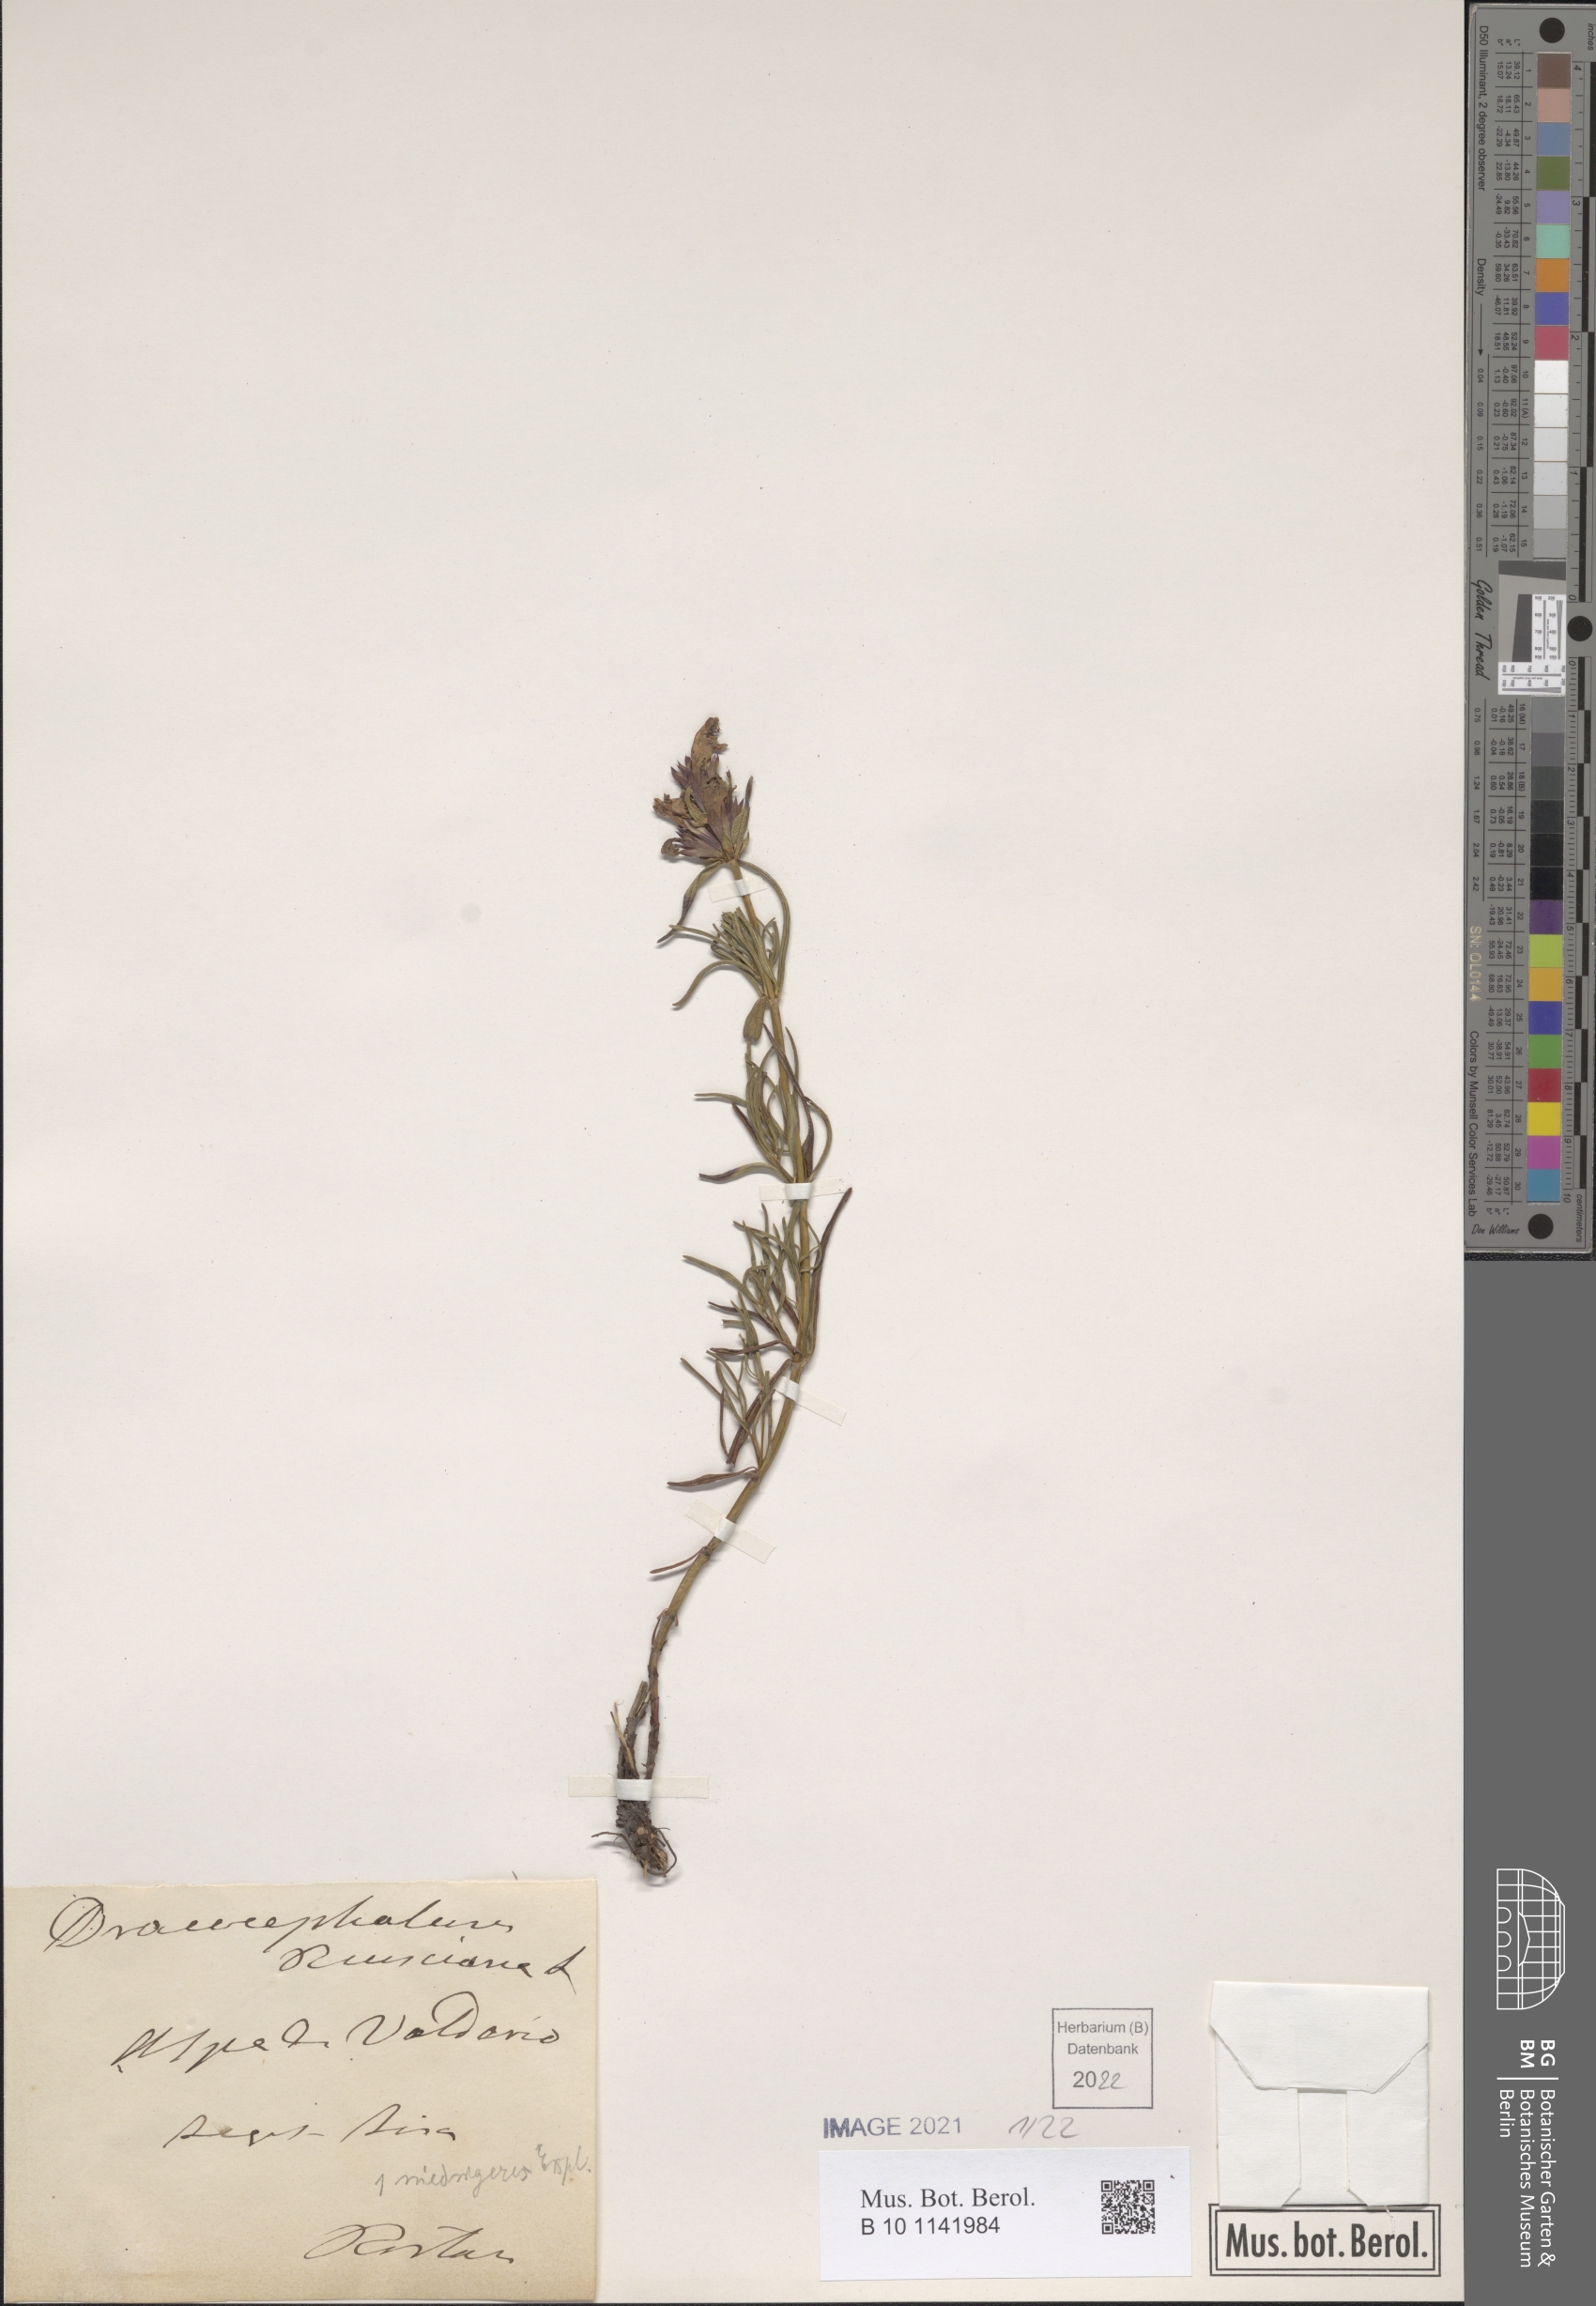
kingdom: Plantae
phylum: Tracheophyta
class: Magnoliopsida
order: Lamiales
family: Lamiaceae
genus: Dracocephalum
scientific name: Dracocephalum ruyschiana
